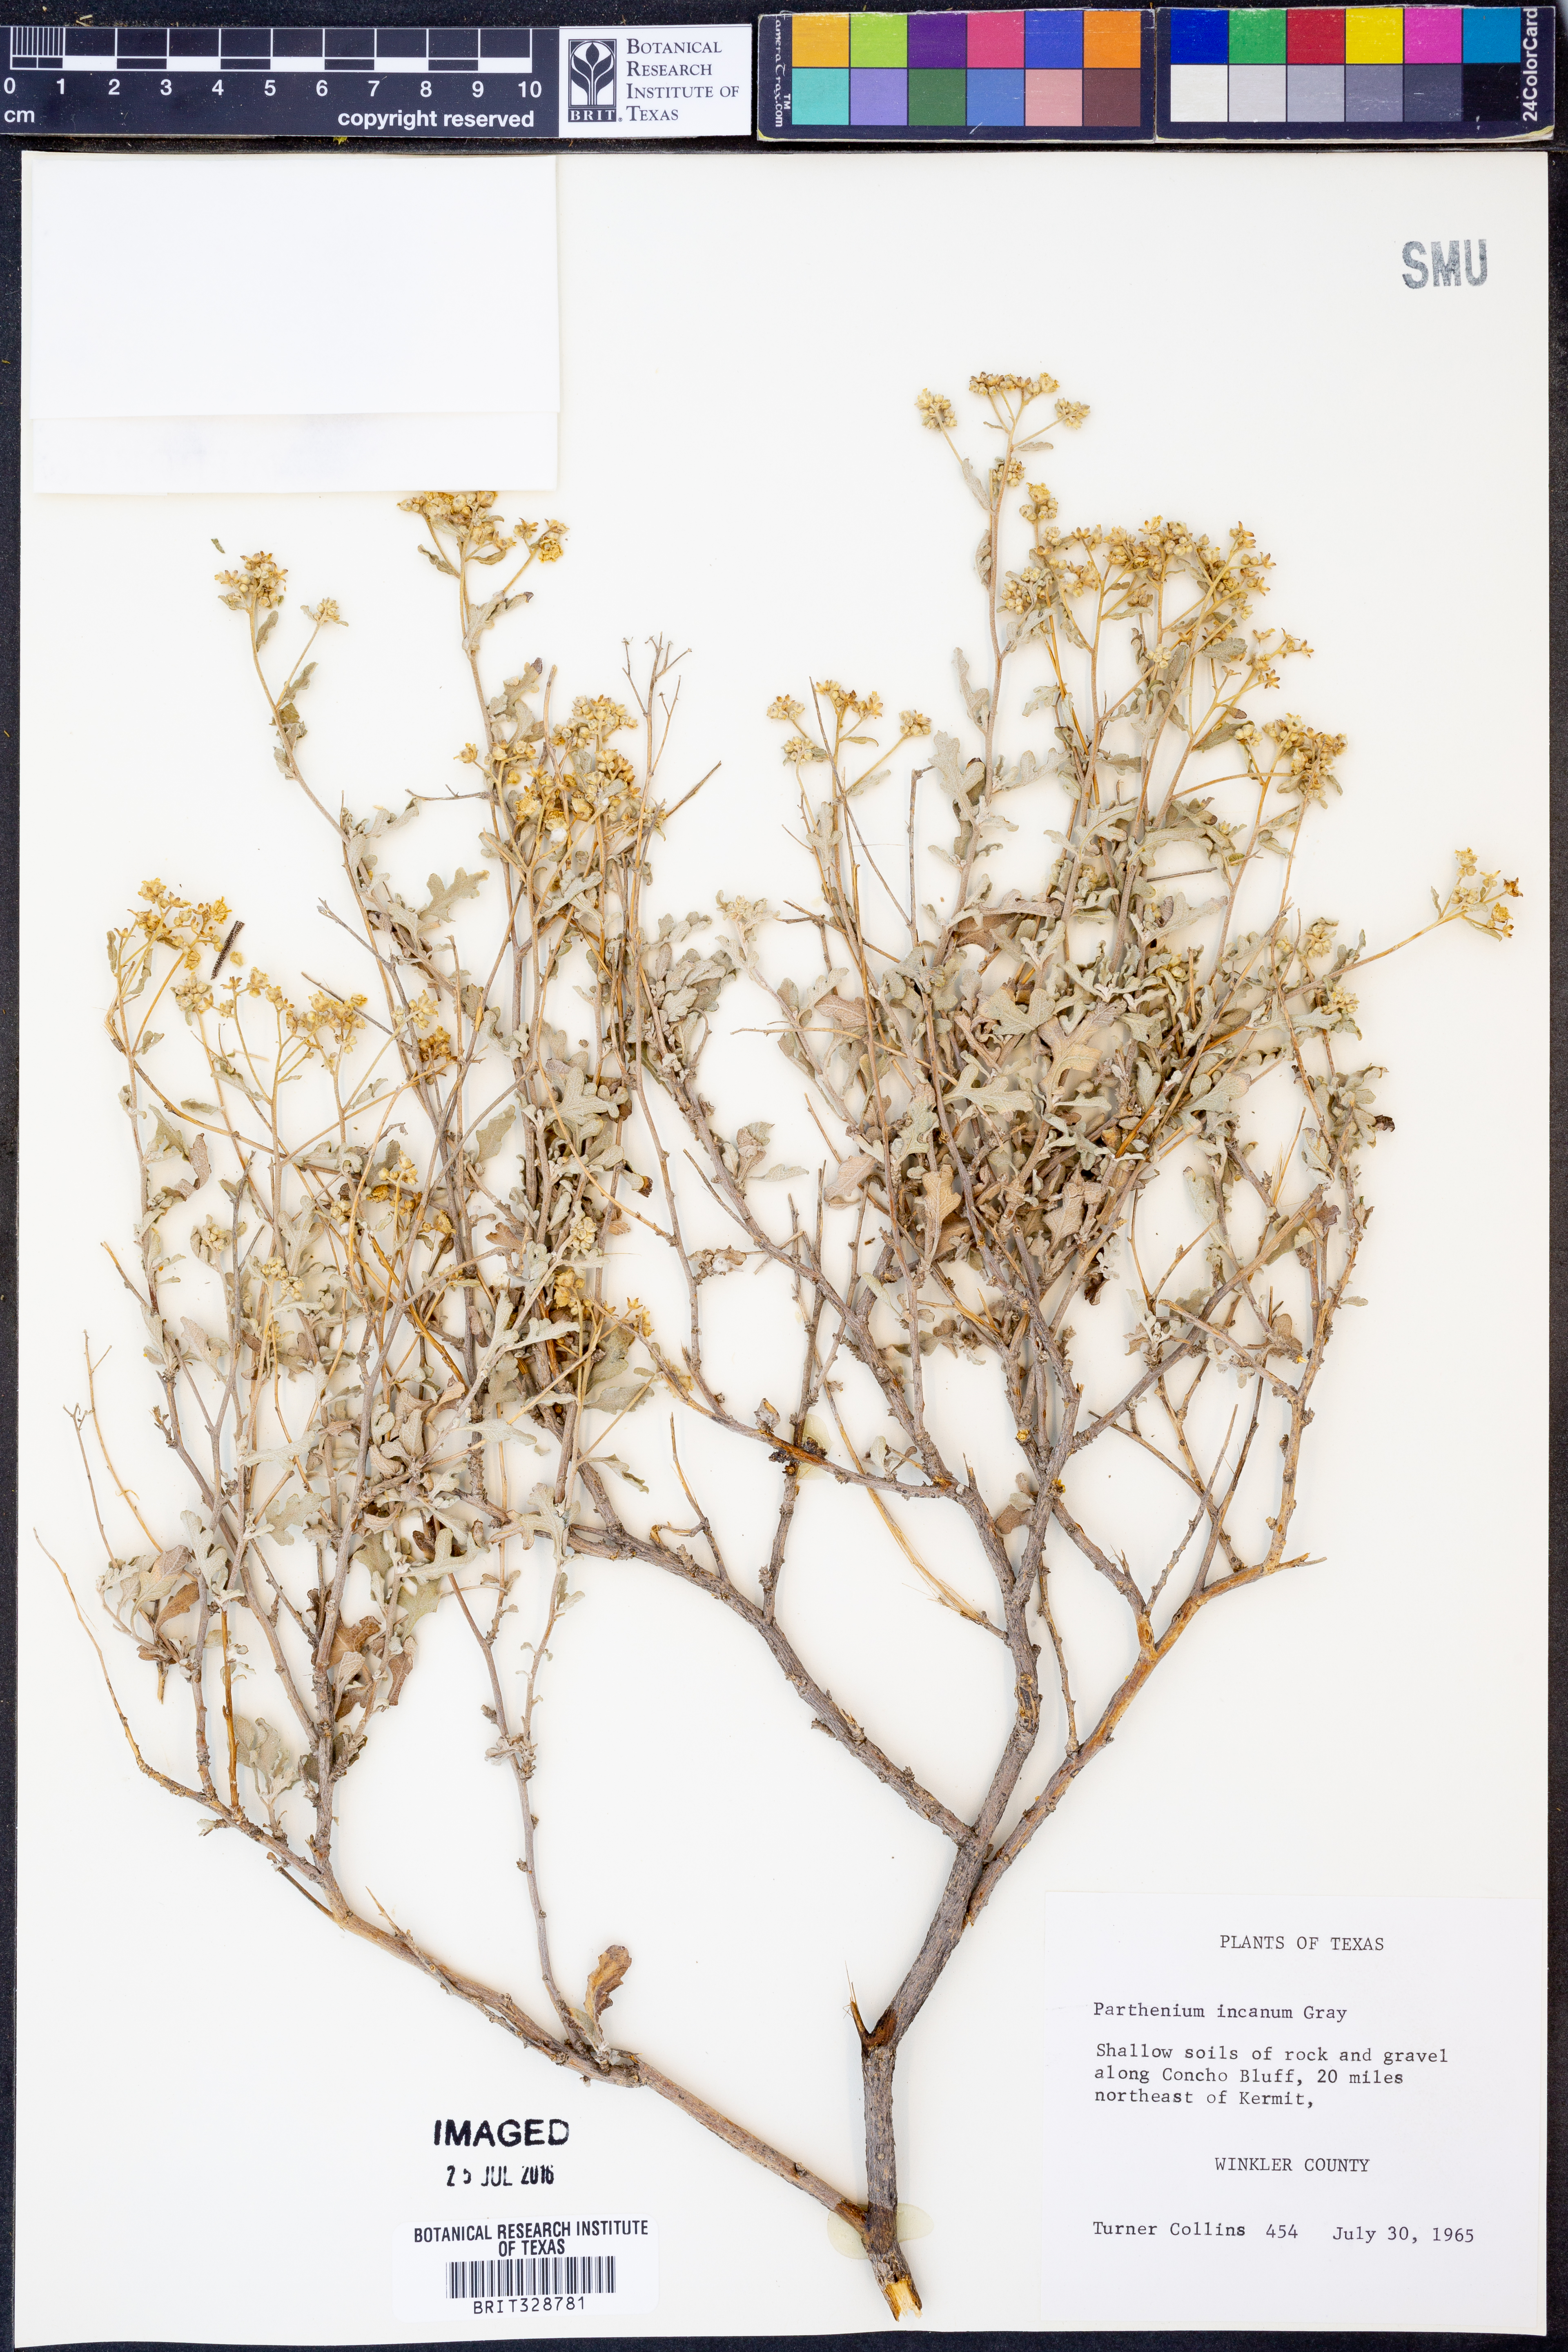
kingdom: Plantae
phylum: Tracheophyta
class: Magnoliopsida
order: Asterales
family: Asteraceae
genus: Parthenium
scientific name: Parthenium incanum
